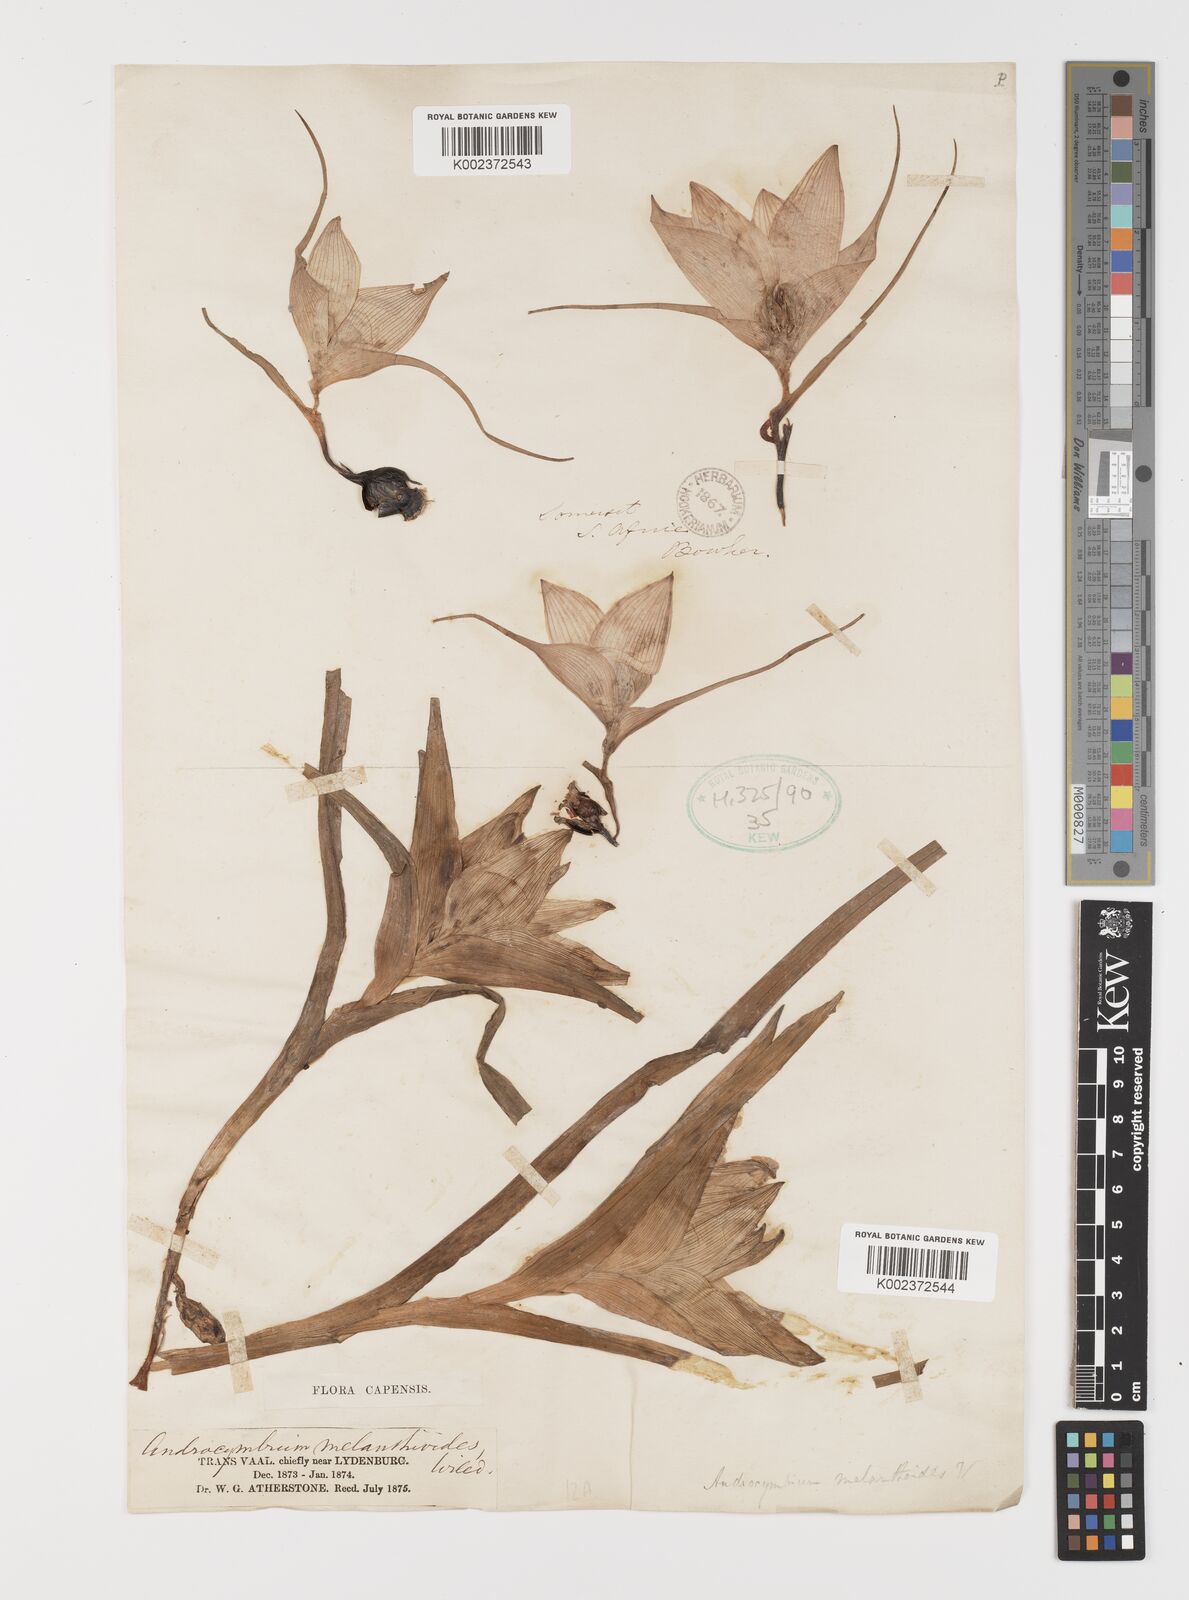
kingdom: Plantae
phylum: Tracheophyta
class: Liliopsida
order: Liliales
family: Colchicaceae
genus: Colchicum
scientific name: Colchicum melanthioides
